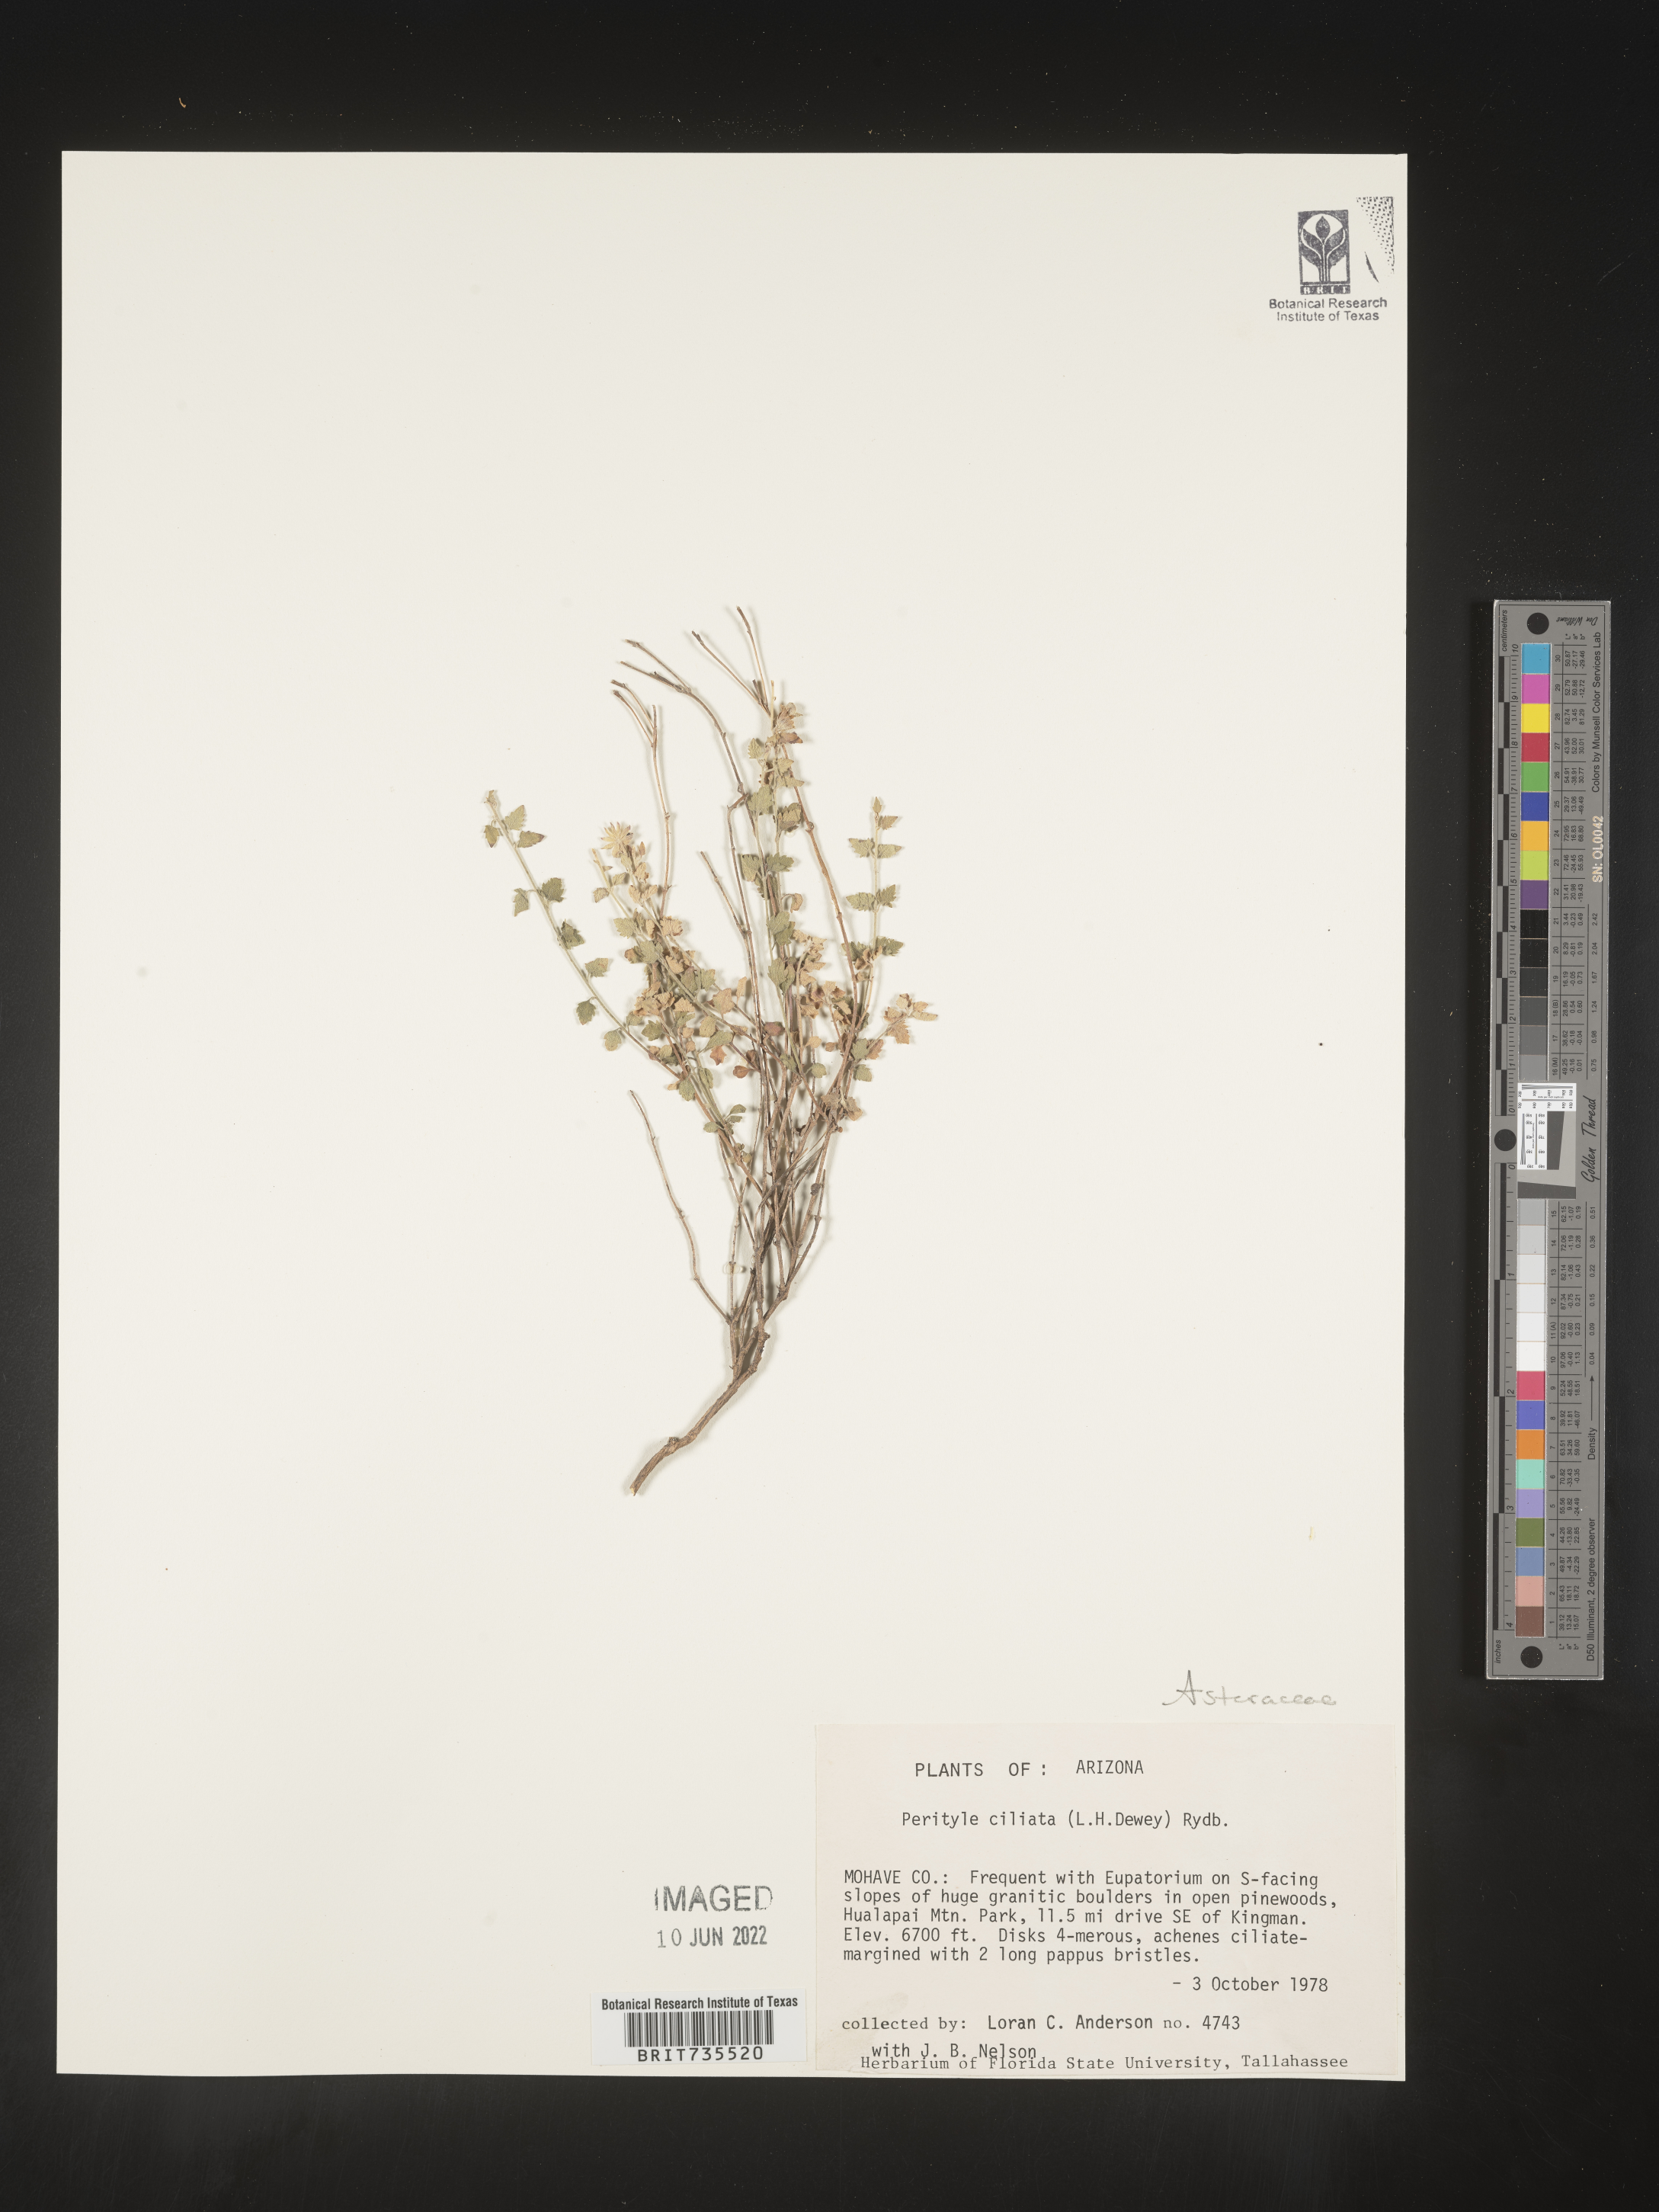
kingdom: Plantae
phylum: Tracheophyta
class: Magnoliopsida
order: Asterales
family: Asteraceae
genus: Perityle
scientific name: Perityle
